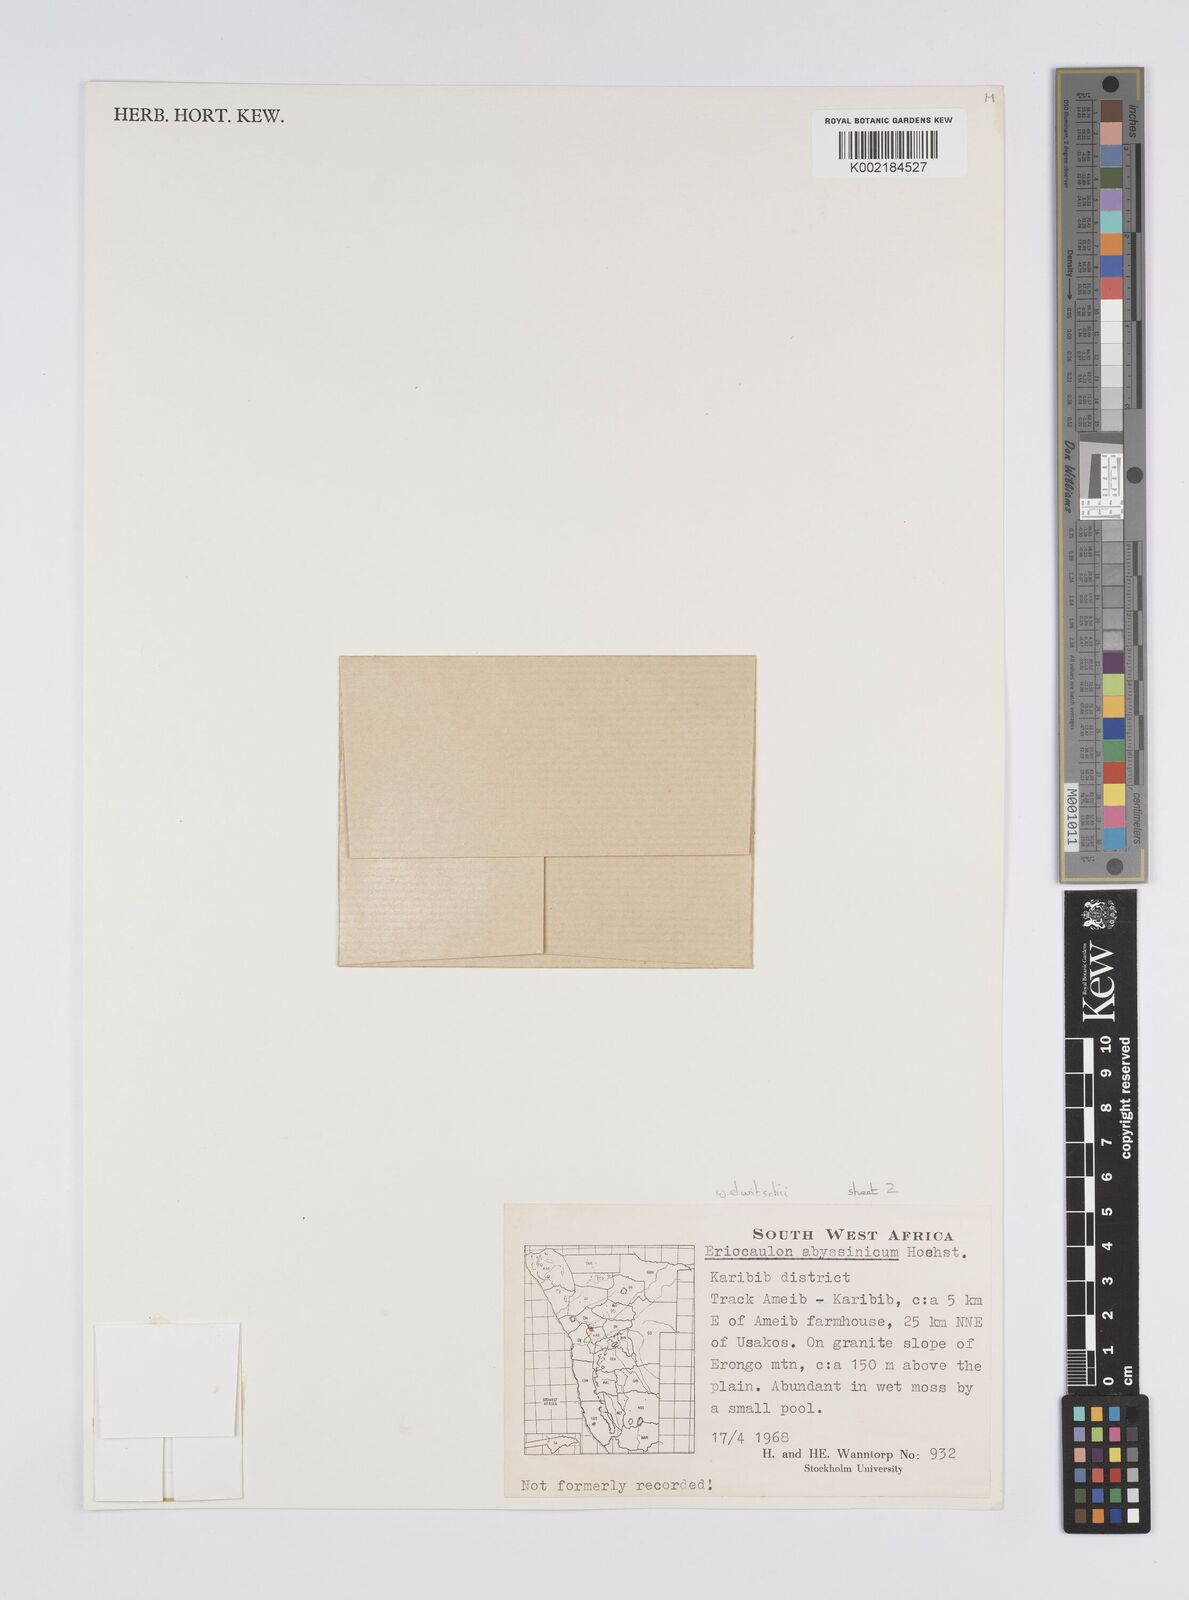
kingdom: Plantae
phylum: Tracheophyta
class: Liliopsida
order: Poales
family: Eriocaulaceae
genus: Eriocaulon
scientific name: Eriocaulon welwitschii
